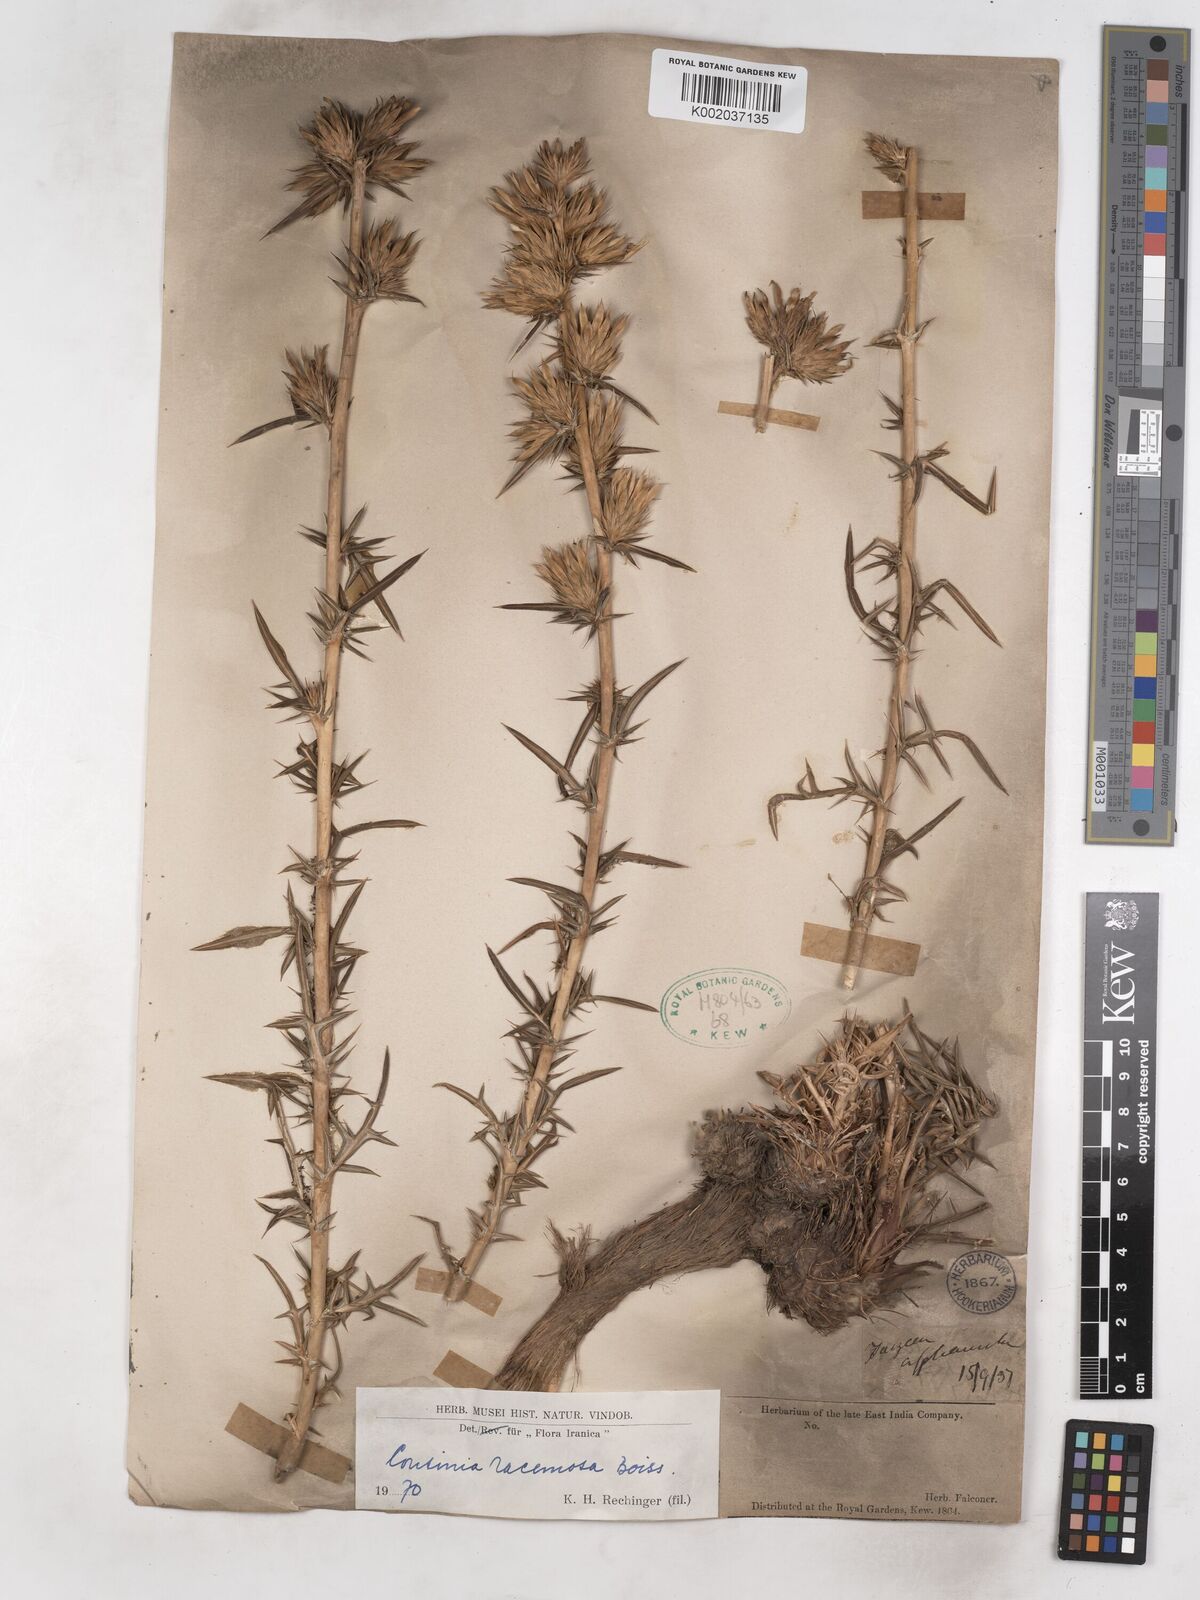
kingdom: Plantae
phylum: Tracheophyta
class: Magnoliopsida
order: Asterales
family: Asteraceae
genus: Cousinia
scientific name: Cousinia racemosa
